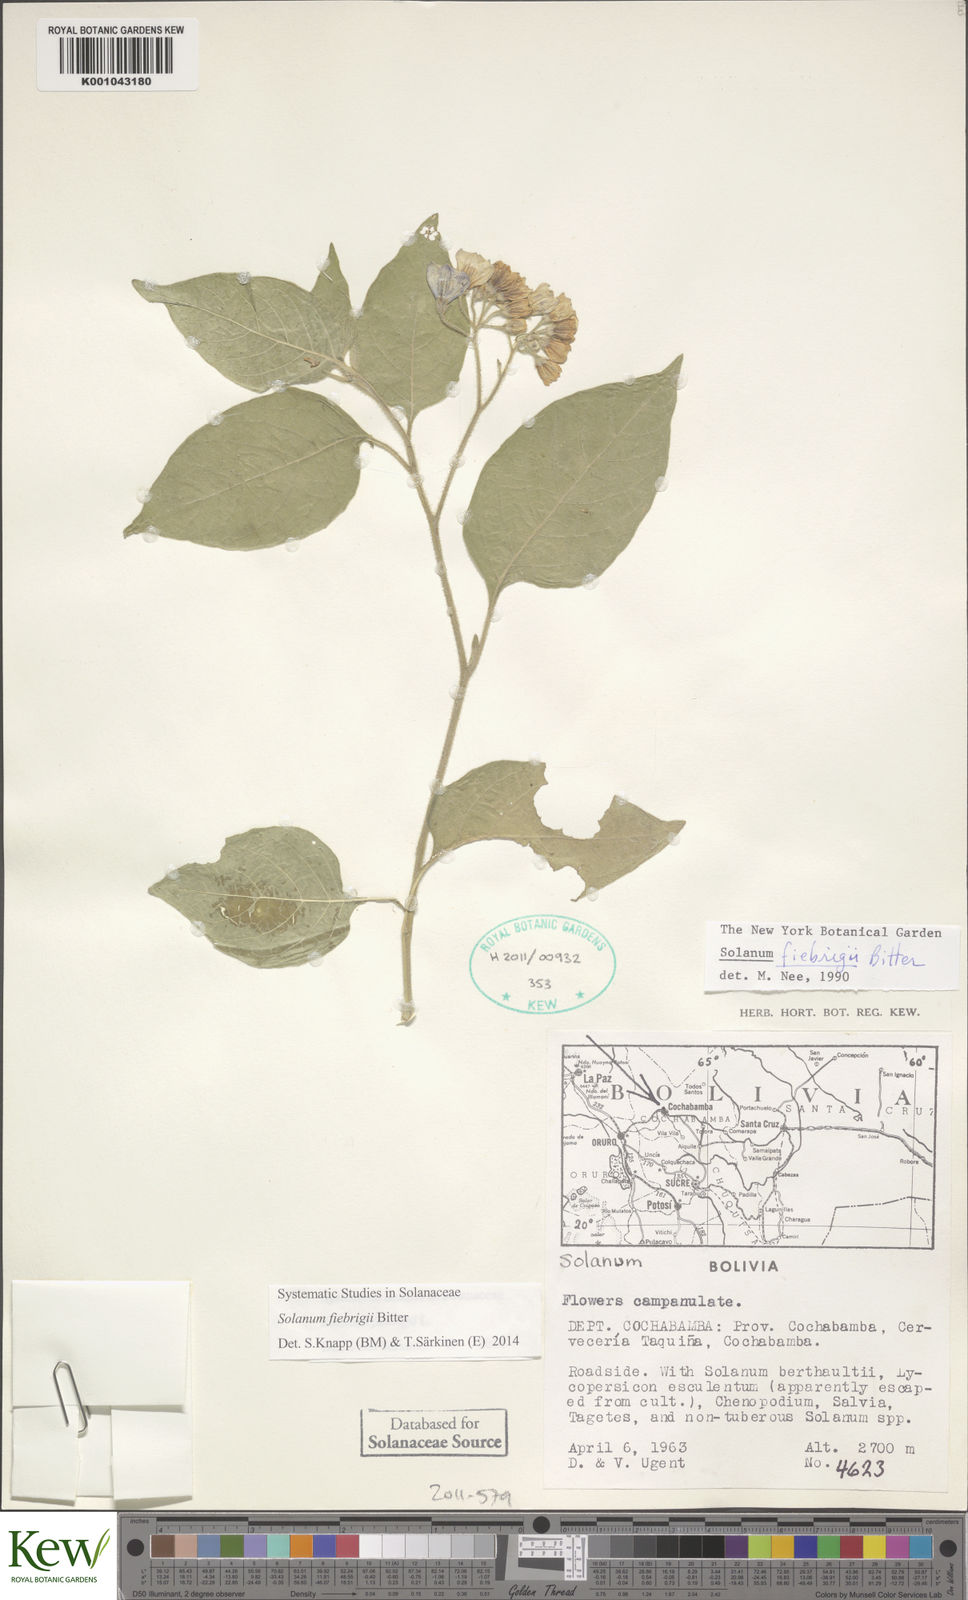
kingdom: Plantae
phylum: Tracheophyta
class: Magnoliopsida
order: Solanales
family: Solanaceae
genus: Solanum
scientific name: Solanum fiebrigii
